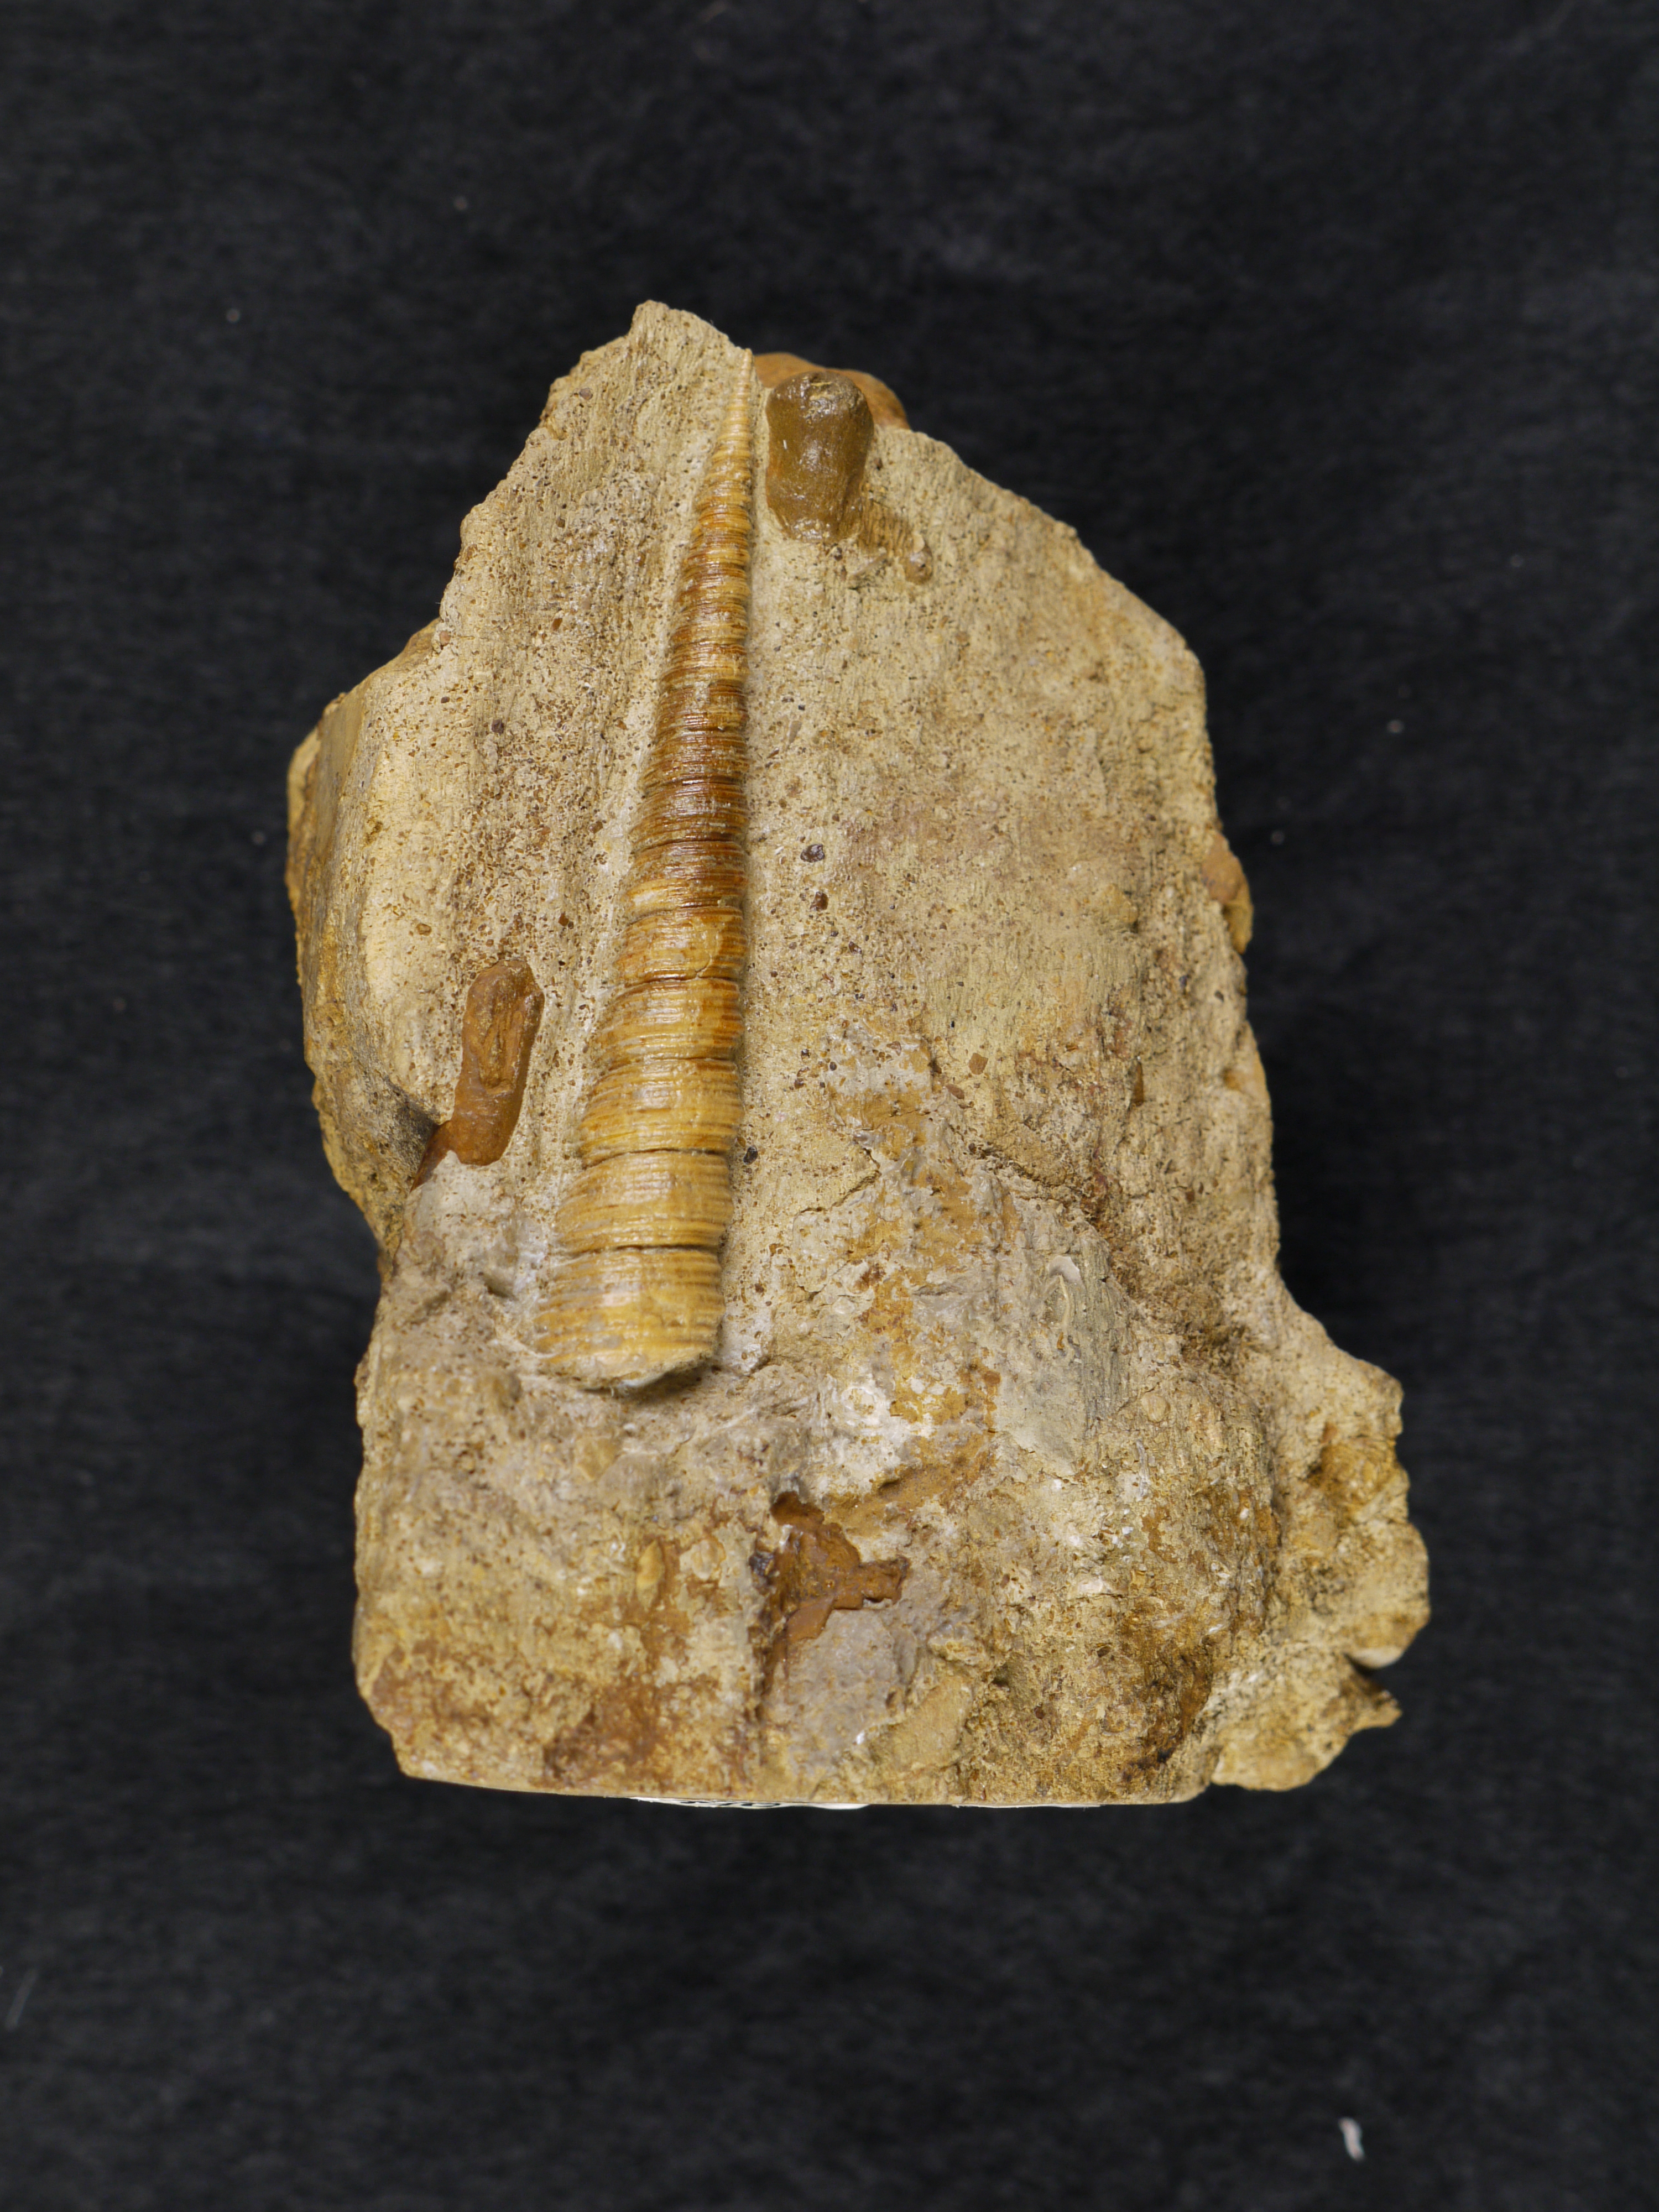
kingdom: Animalia
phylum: Mollusca
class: Gastropoda
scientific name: Gastropoda
